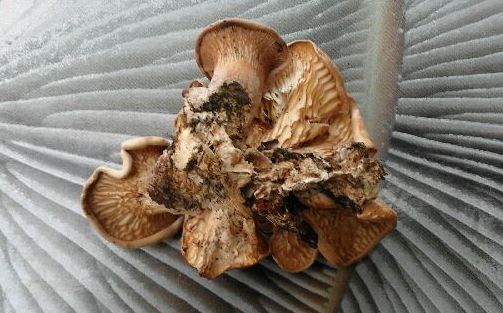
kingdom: Fungi
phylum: Basidiomycota
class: Agaricomycetes
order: Polyporales
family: Panaceae
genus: Panus
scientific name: Panus conchatus
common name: filtstokket læderhat
